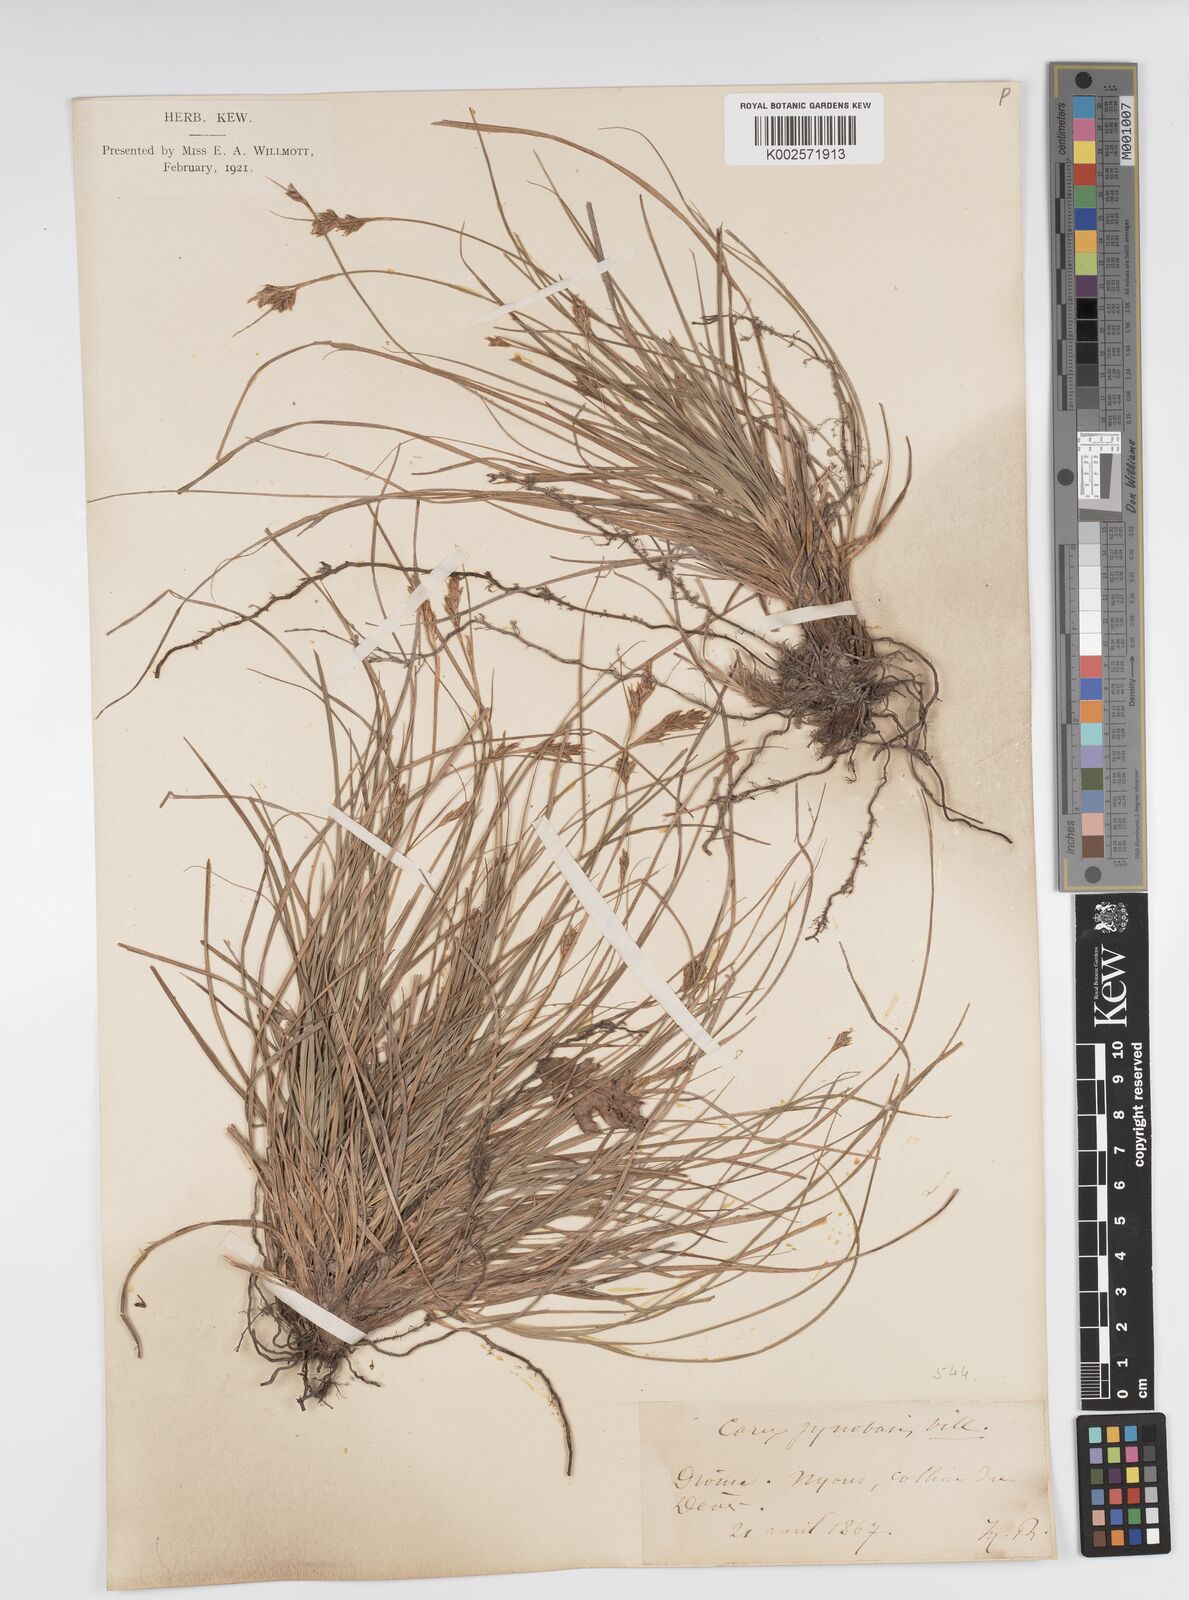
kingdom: Plantae
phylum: Tracheophyta
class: Liliopsida
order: Poales
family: Cyperaceae
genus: Carex
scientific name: Carex halleriana
